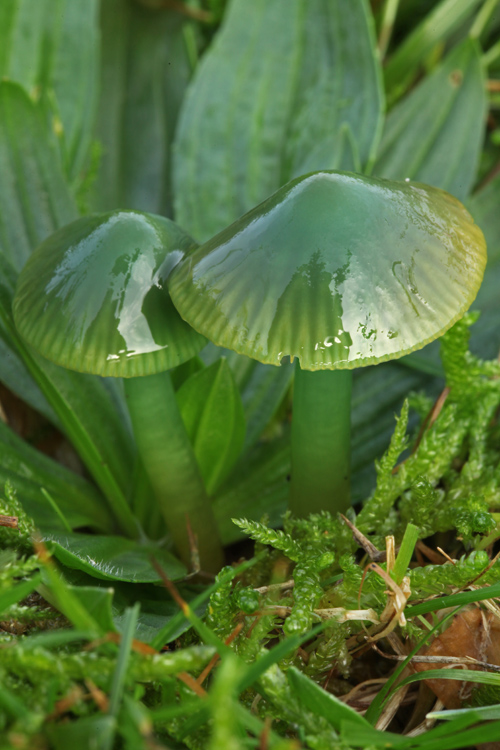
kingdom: Fungi
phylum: Basidiomycota
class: Agaricomycetes
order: Agaricales
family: Hygrophoraceae
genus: Gliophorus
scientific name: Gliophorus psittacinus
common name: papegøje-vokshat
